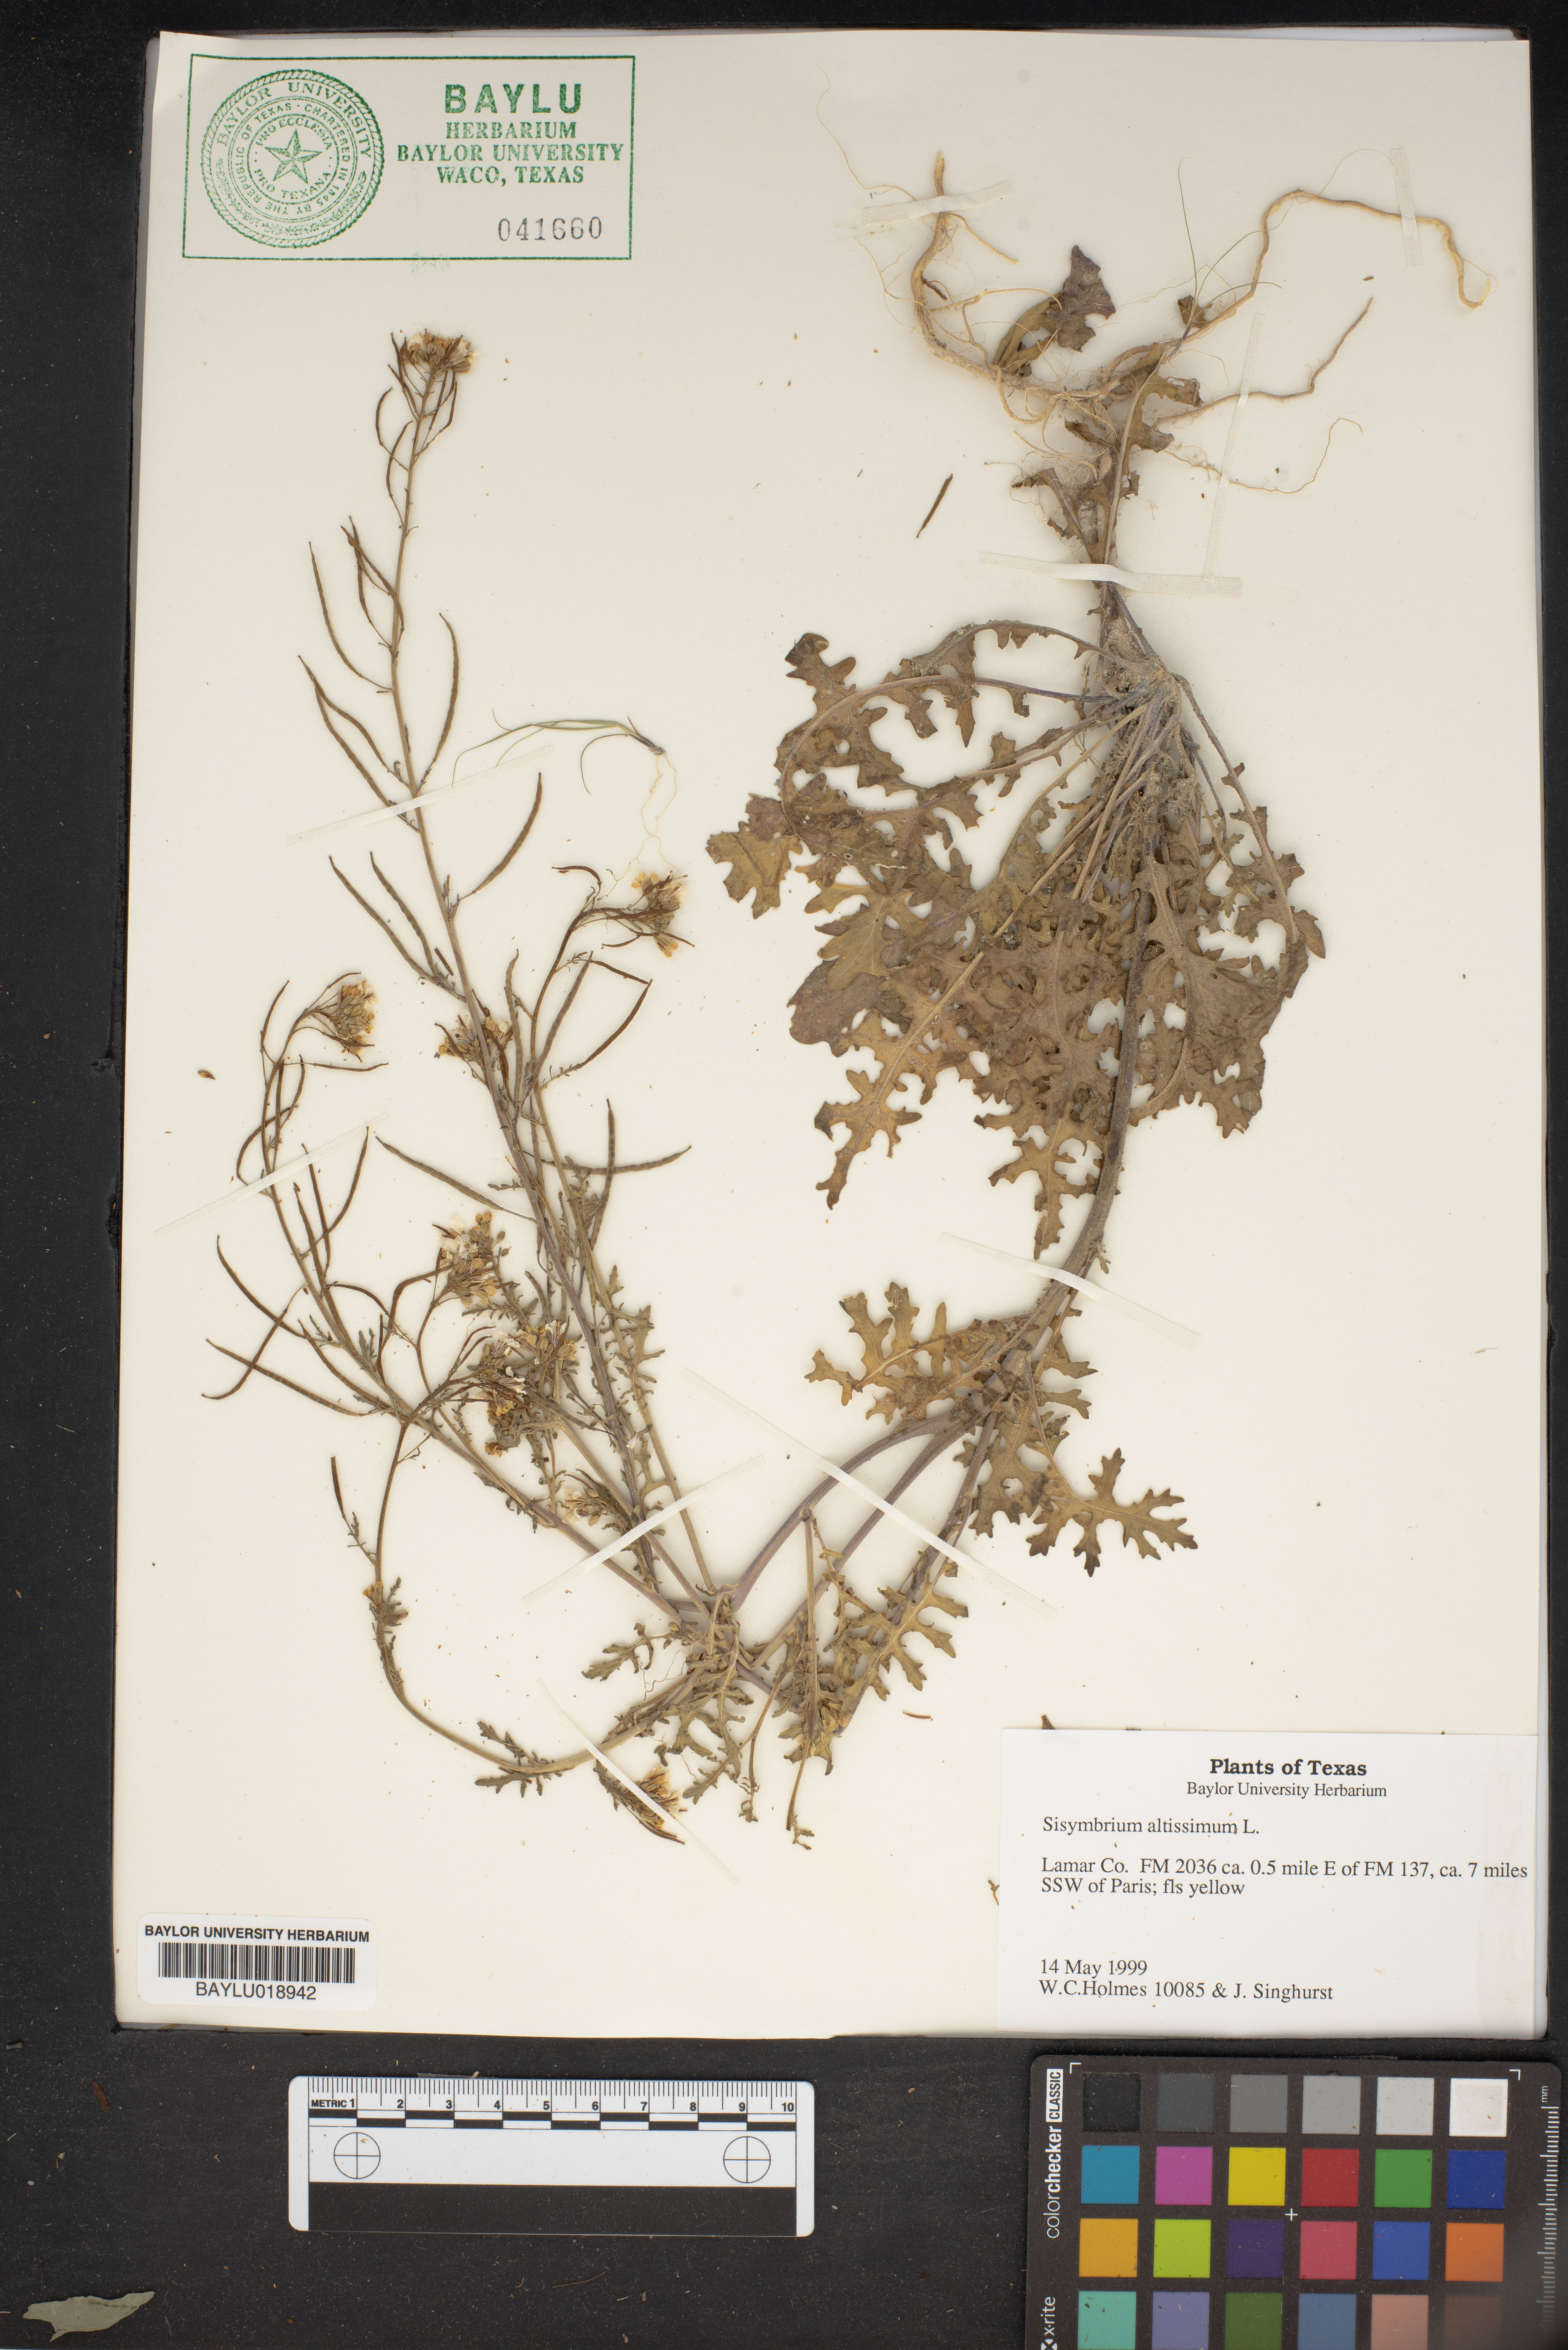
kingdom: Plantae
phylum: Tracheophyta
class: Magnoliopsida
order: Brassicales
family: Brassicaceae
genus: Sisymbrium
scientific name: Sisymbrium altissimum
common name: Tall rocket
